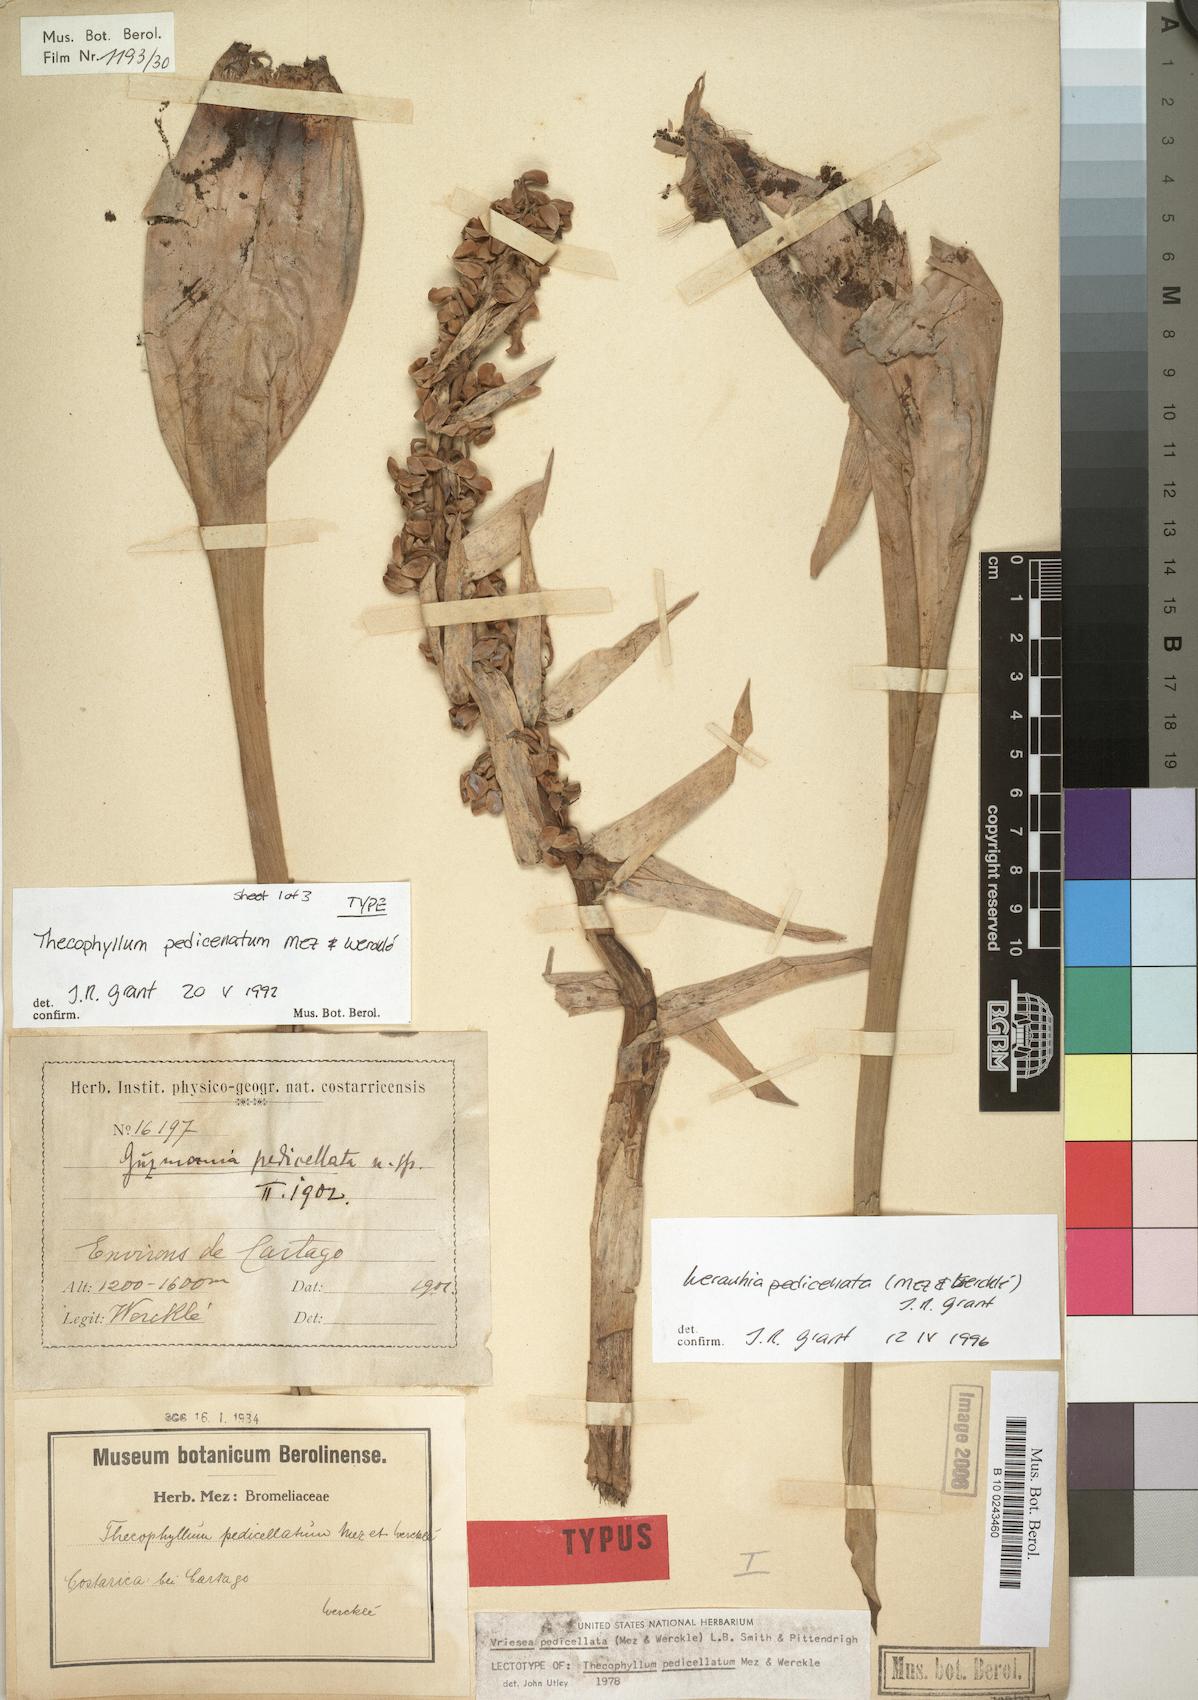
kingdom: Plantae
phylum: Tracheophyta
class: Liliopsida
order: Poales
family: Bromeliaceae
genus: Werauhia
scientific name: Werauhia pedicellata
